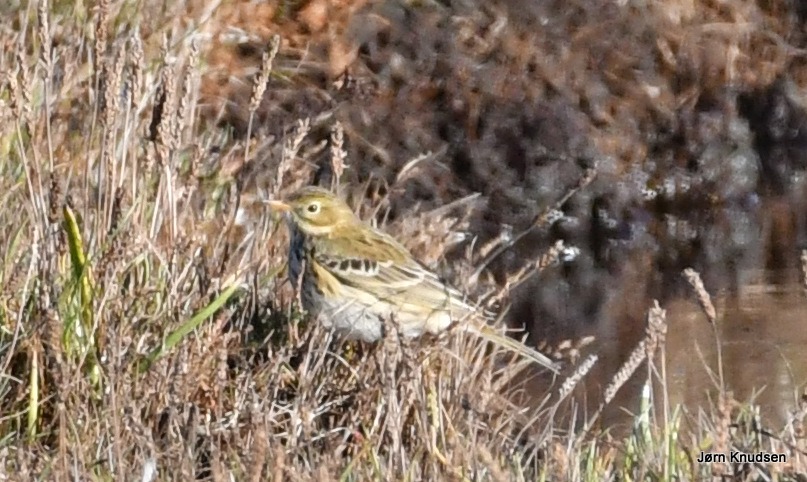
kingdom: Animalia
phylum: Chordata
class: Aves
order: Passeriformes
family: Motacillidae
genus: Anthus
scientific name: Anthus pratensis
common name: Engpiber
